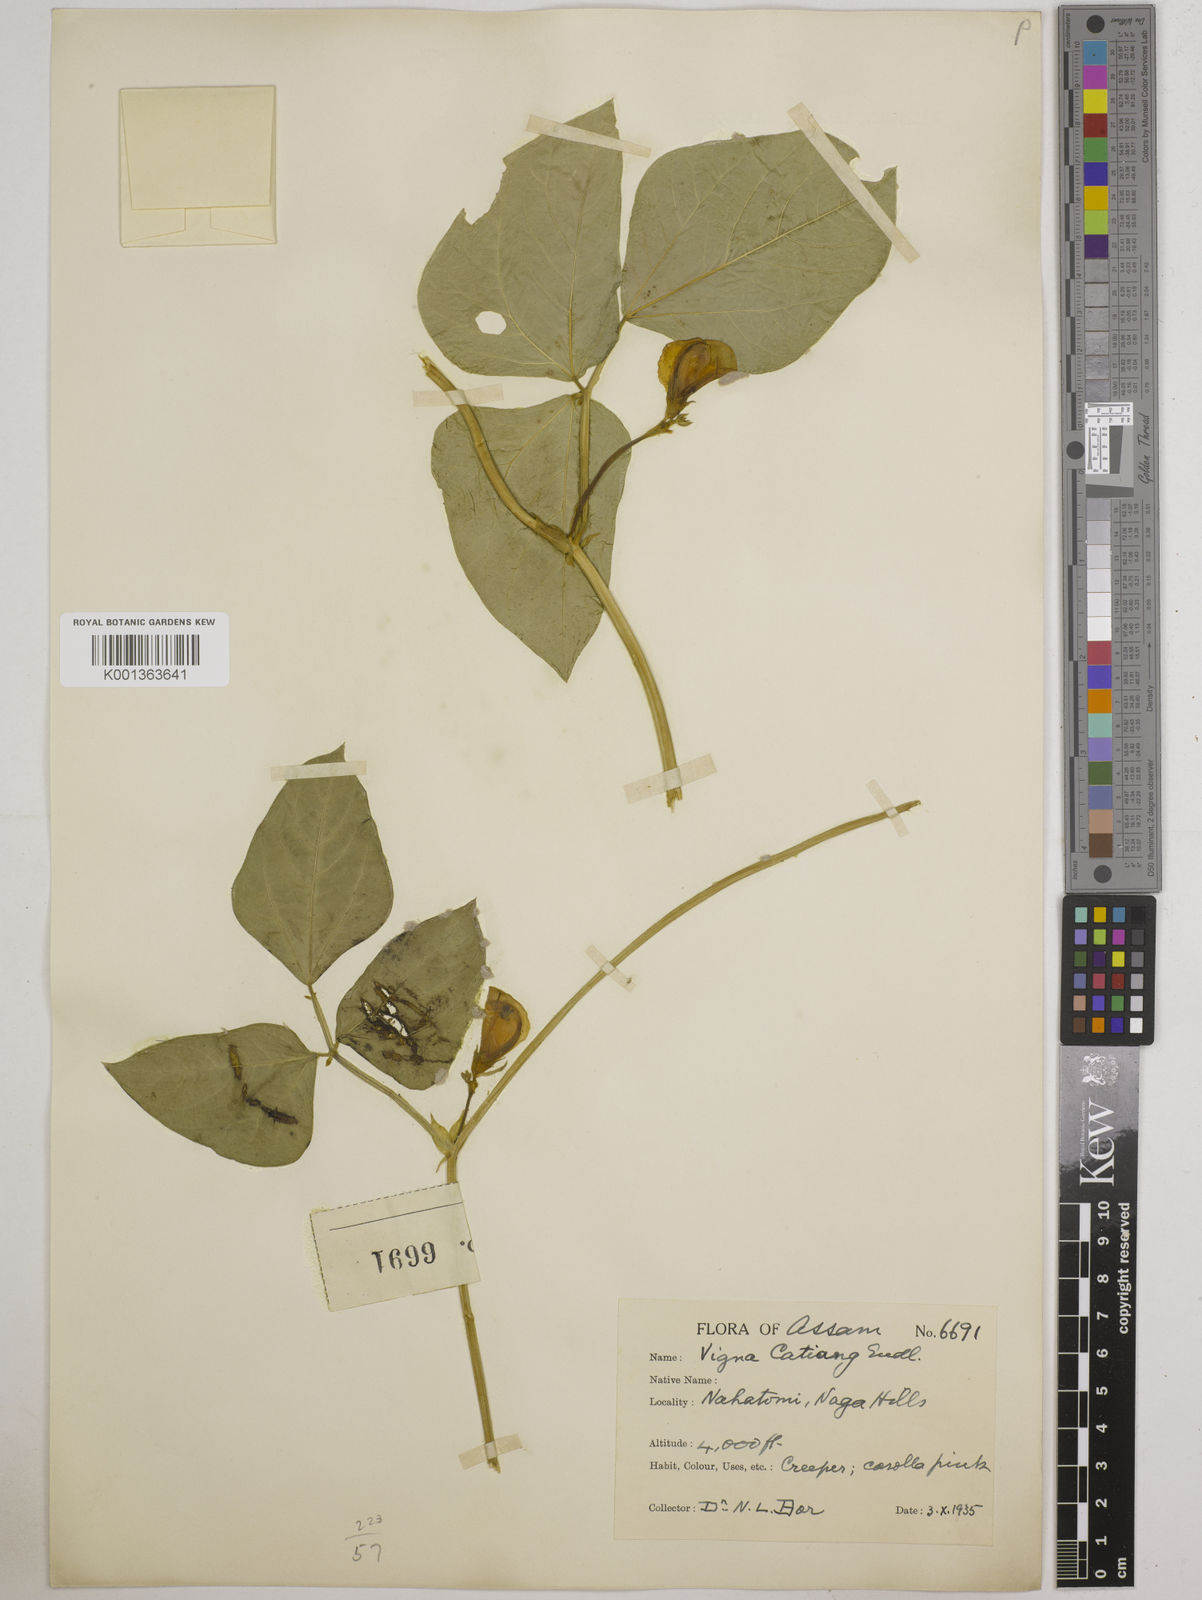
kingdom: Plantae
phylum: Tracheophyta
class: Magnoliopsida
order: Fabales
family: Fabaceae
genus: Vigna
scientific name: Vigna unguiculata
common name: Cowpea
